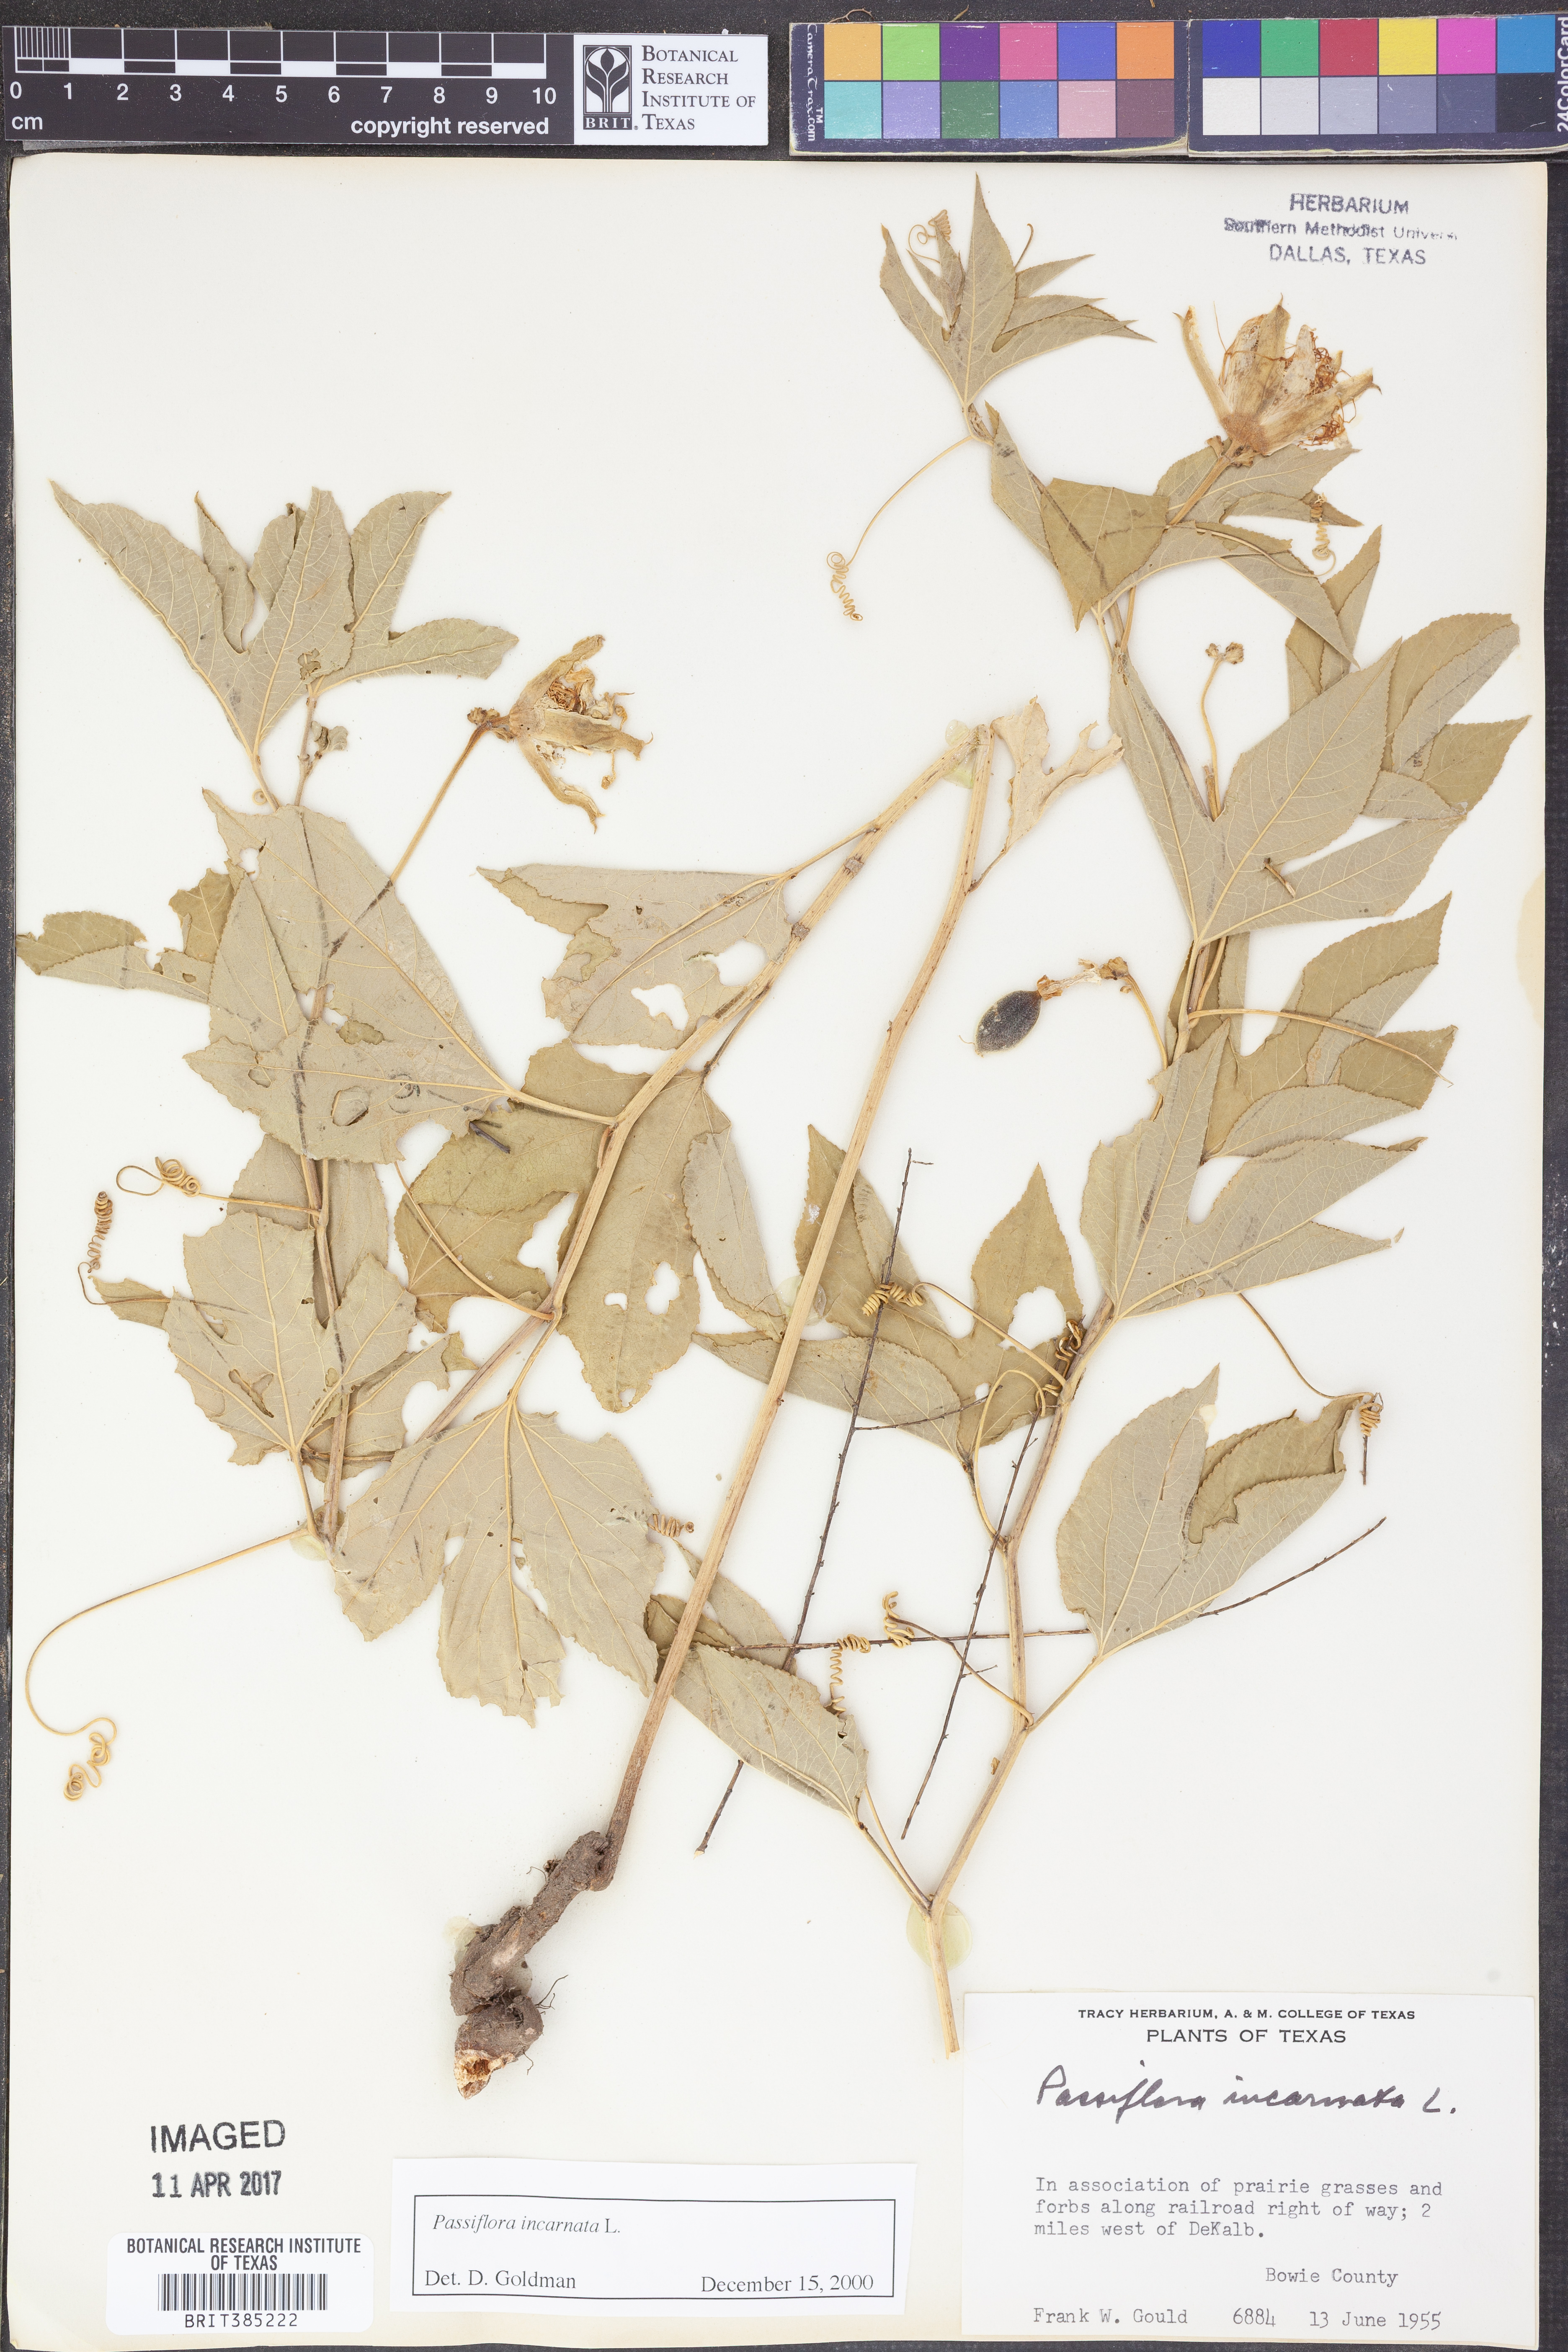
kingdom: Plantae
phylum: Tracheophyta
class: Magnoliopsida
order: Malpighiales
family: Passifloraceae
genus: Passiflora
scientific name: Passiflora incarnata
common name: Apricot-vine
